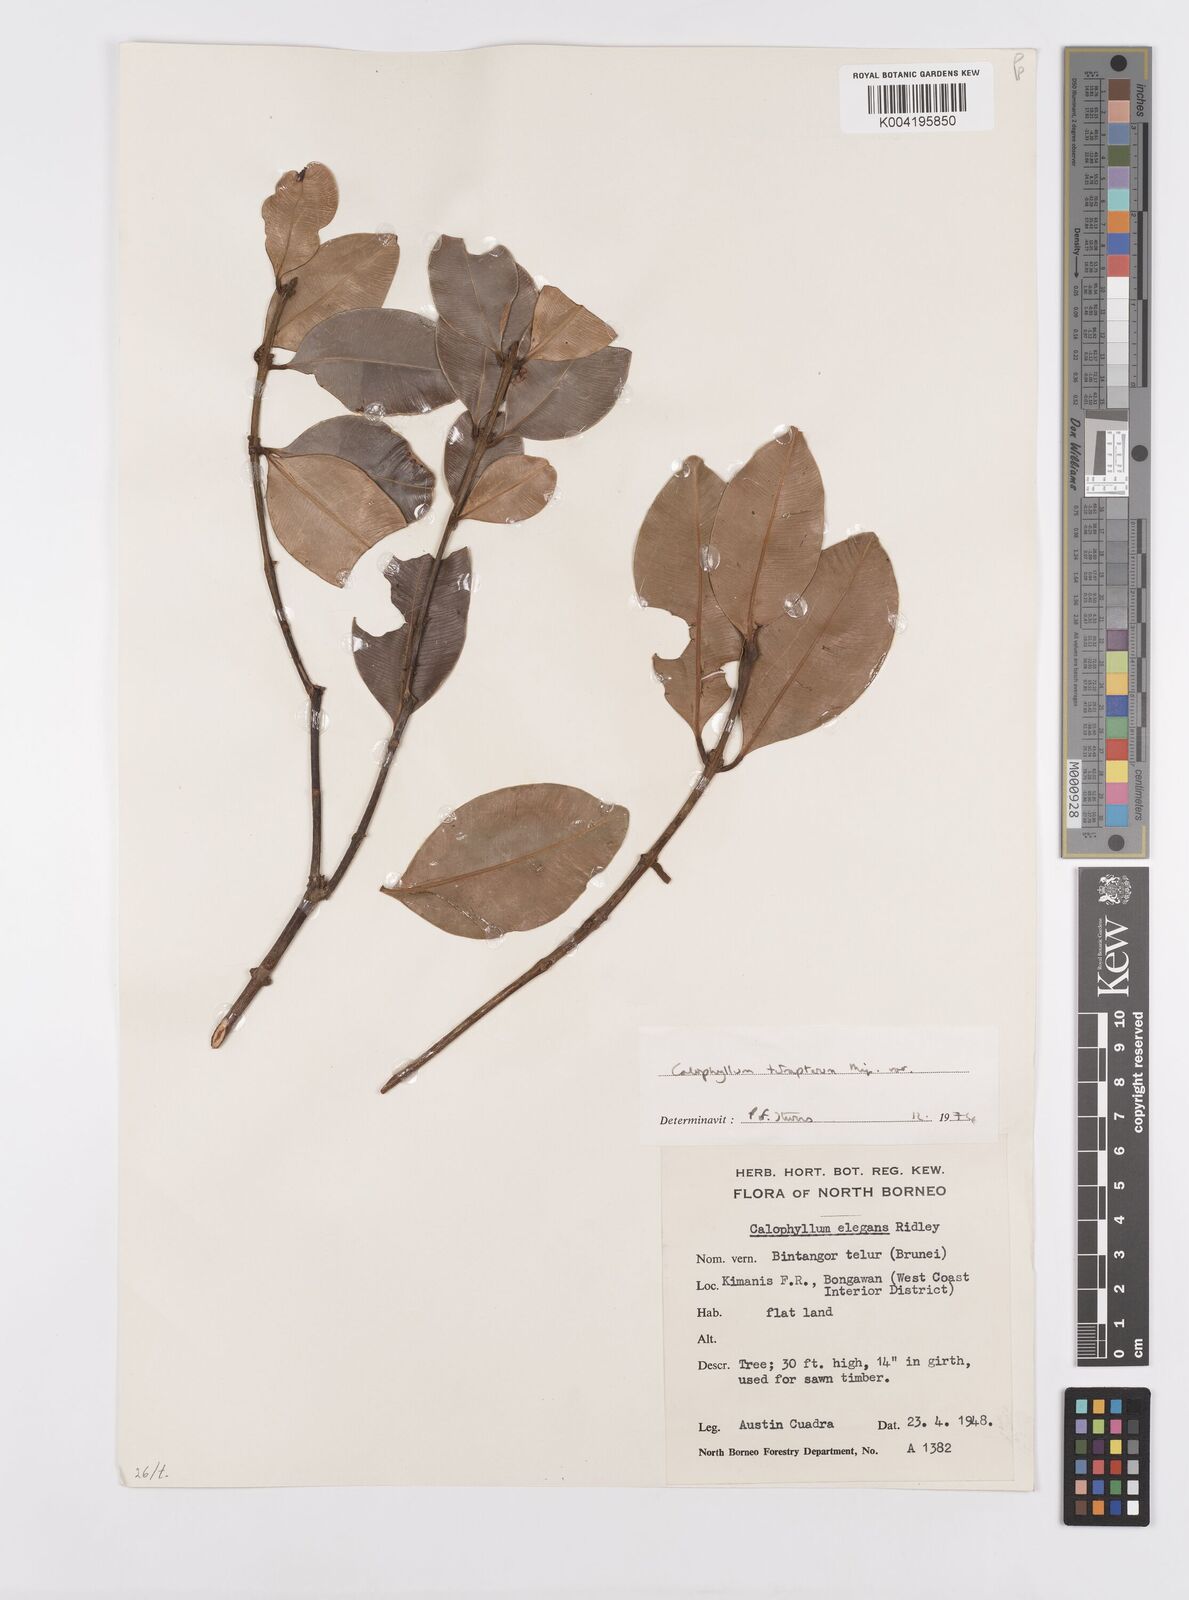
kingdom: Plantae
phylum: Tracheophyta
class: Magnoliopsida
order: Malpighiales
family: Calophyllaceae
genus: Calophyllum
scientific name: Calophyllum tetrapterum
